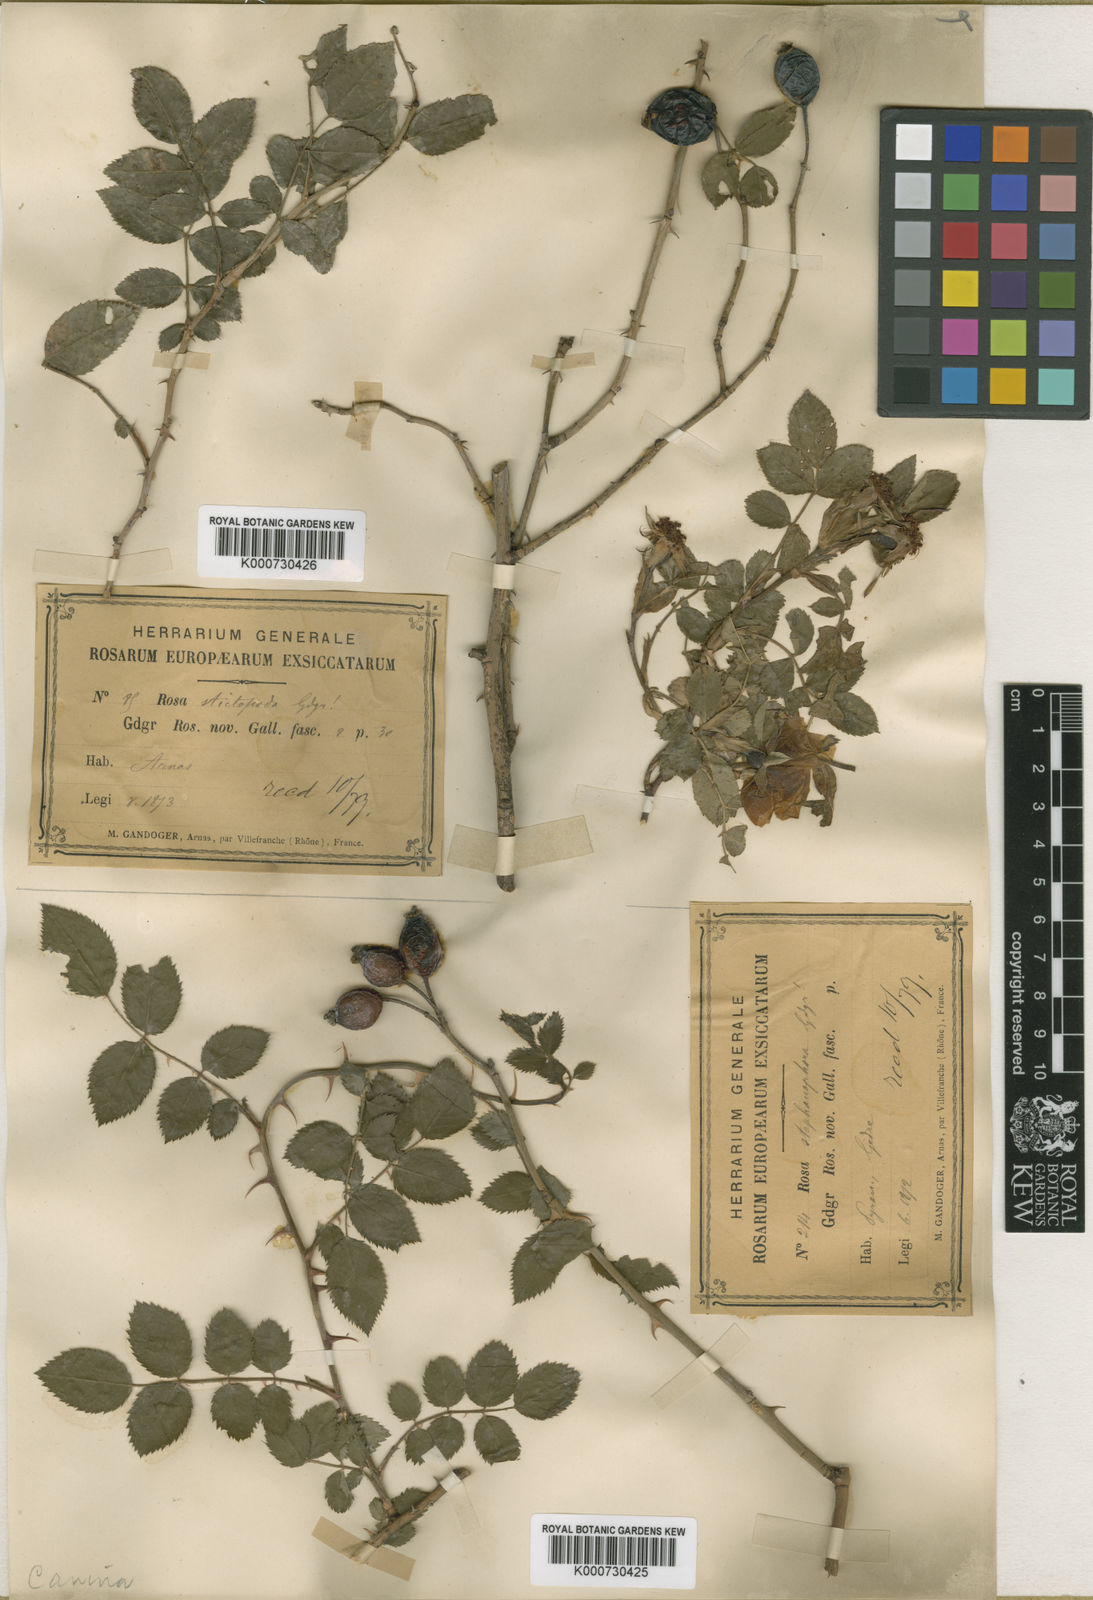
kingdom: Plantae
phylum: Tracheophyta
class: Magnoliopsida
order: Rosales
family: Rosaceae
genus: Rosa
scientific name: Rosa canina
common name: Dog rose
